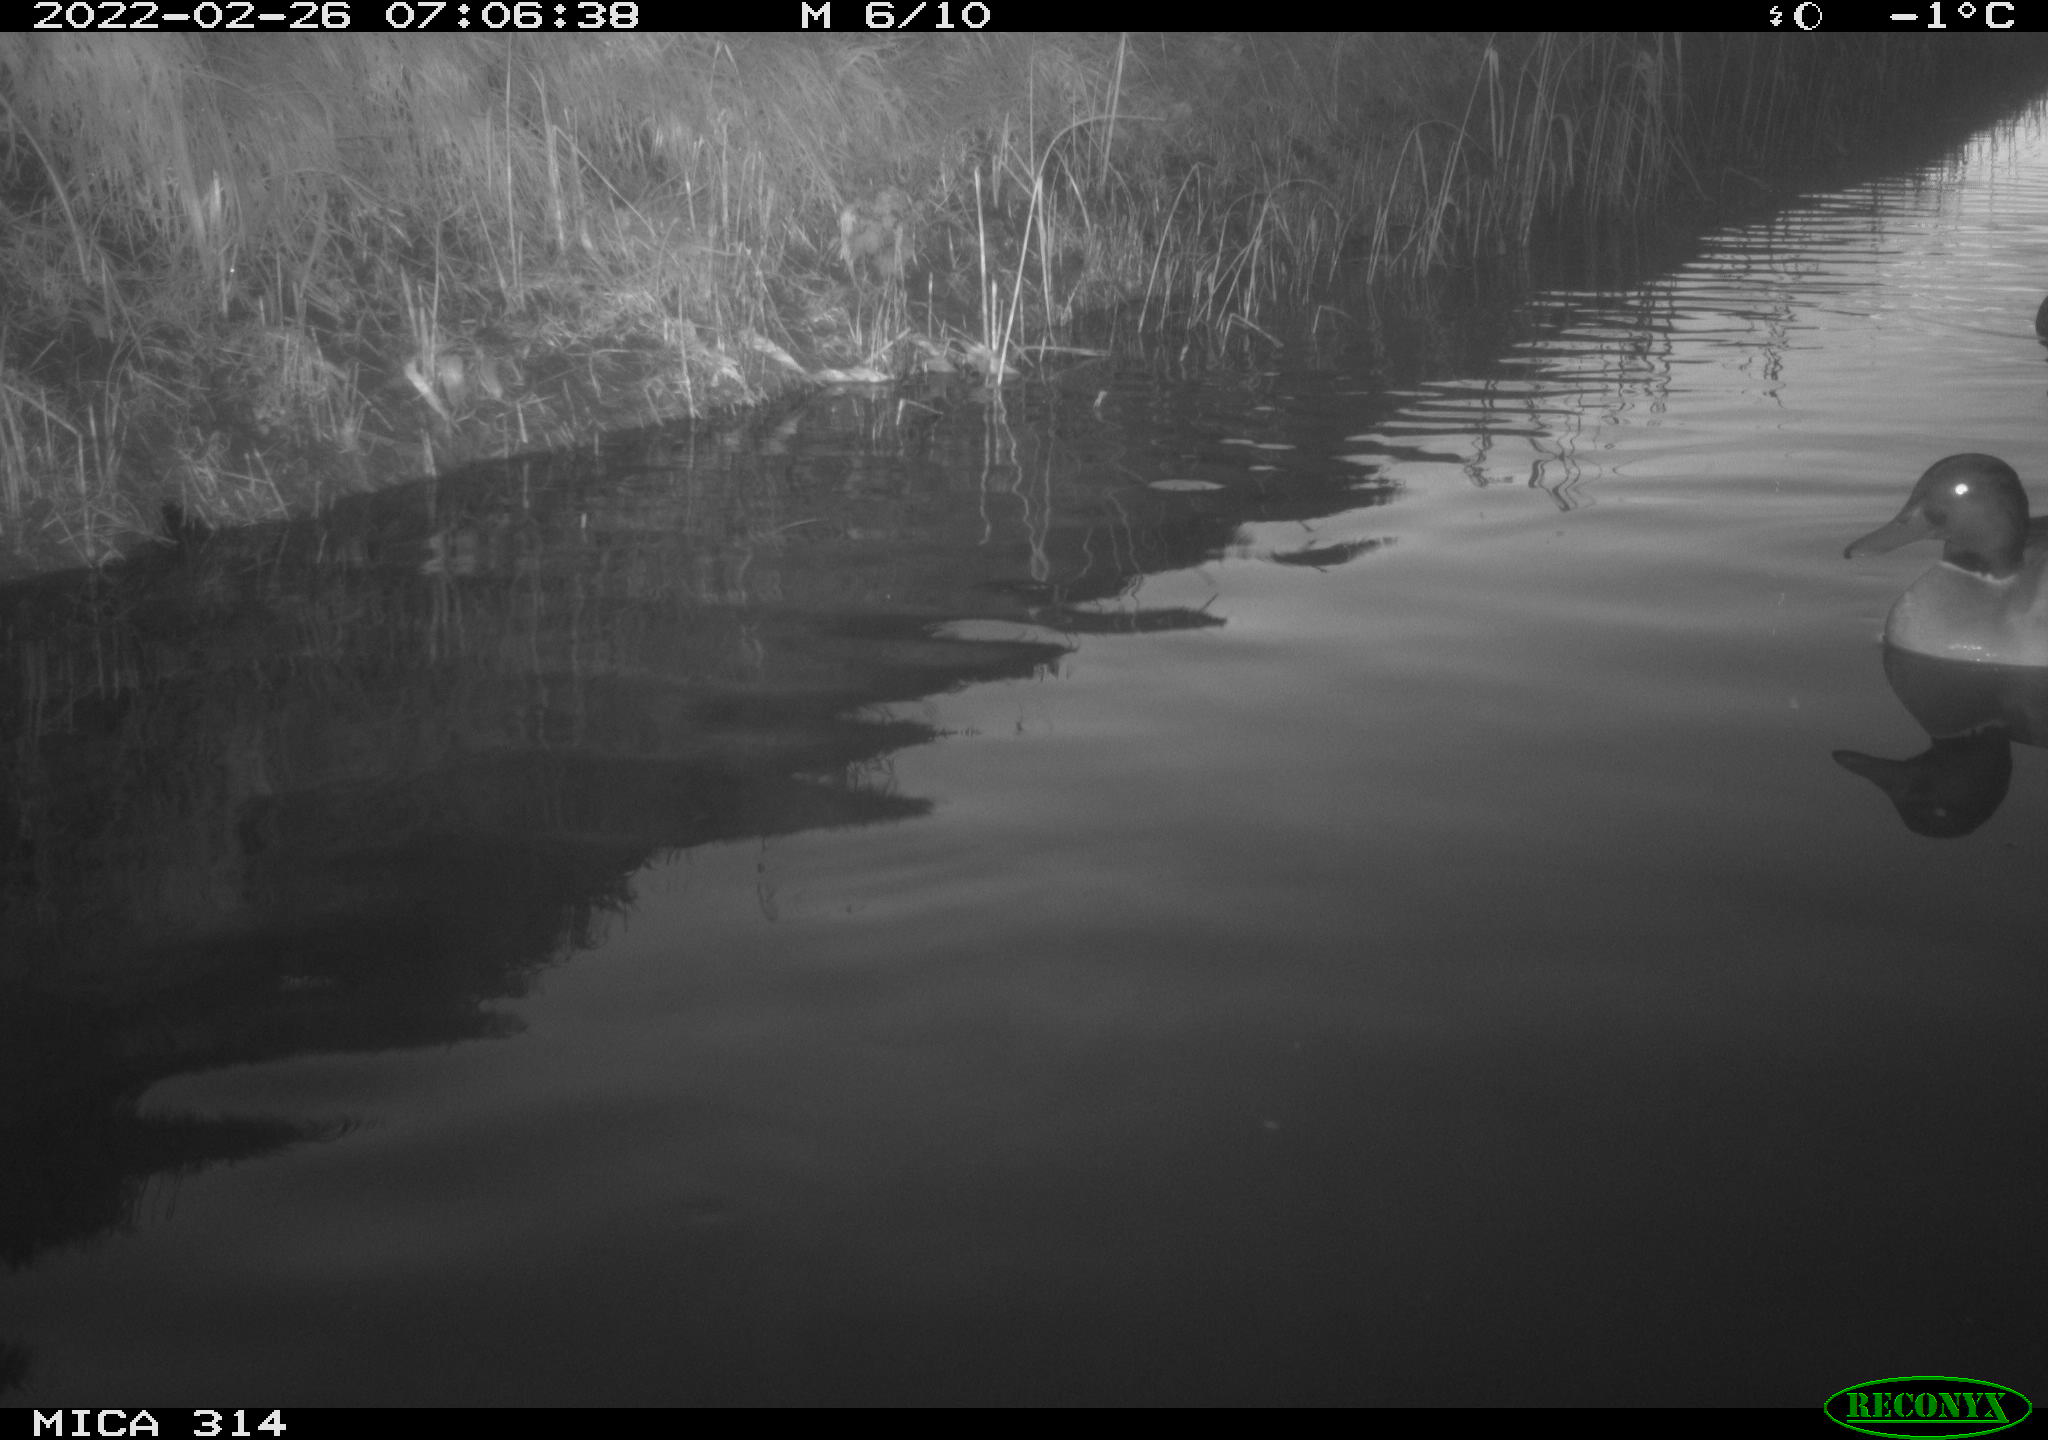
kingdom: Animalia
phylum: Chordata
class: Aves
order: Anseriformes
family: Anatidae
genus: Anas
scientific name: Anas platyrhynchos
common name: Mallard
